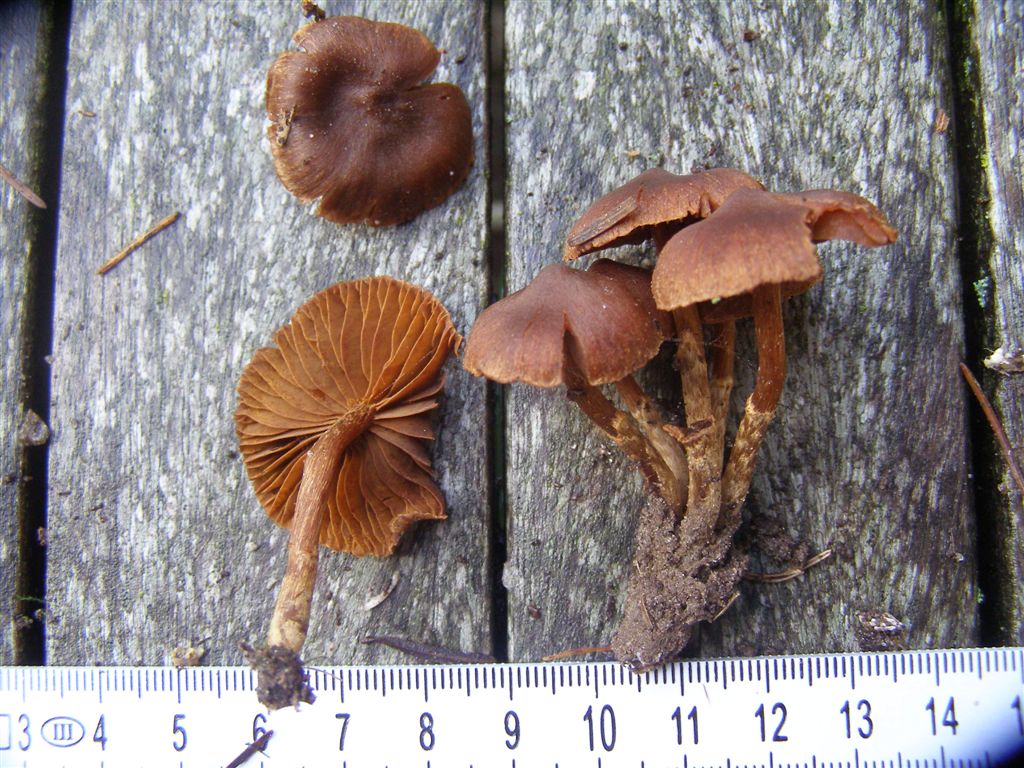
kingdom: Fungi
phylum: Basidiomycota
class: Agaricomycetes
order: Agaricales
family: Cortinariaceae
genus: Cortinarius
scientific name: Cortinarius gentilis
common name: bæltet slørhat
